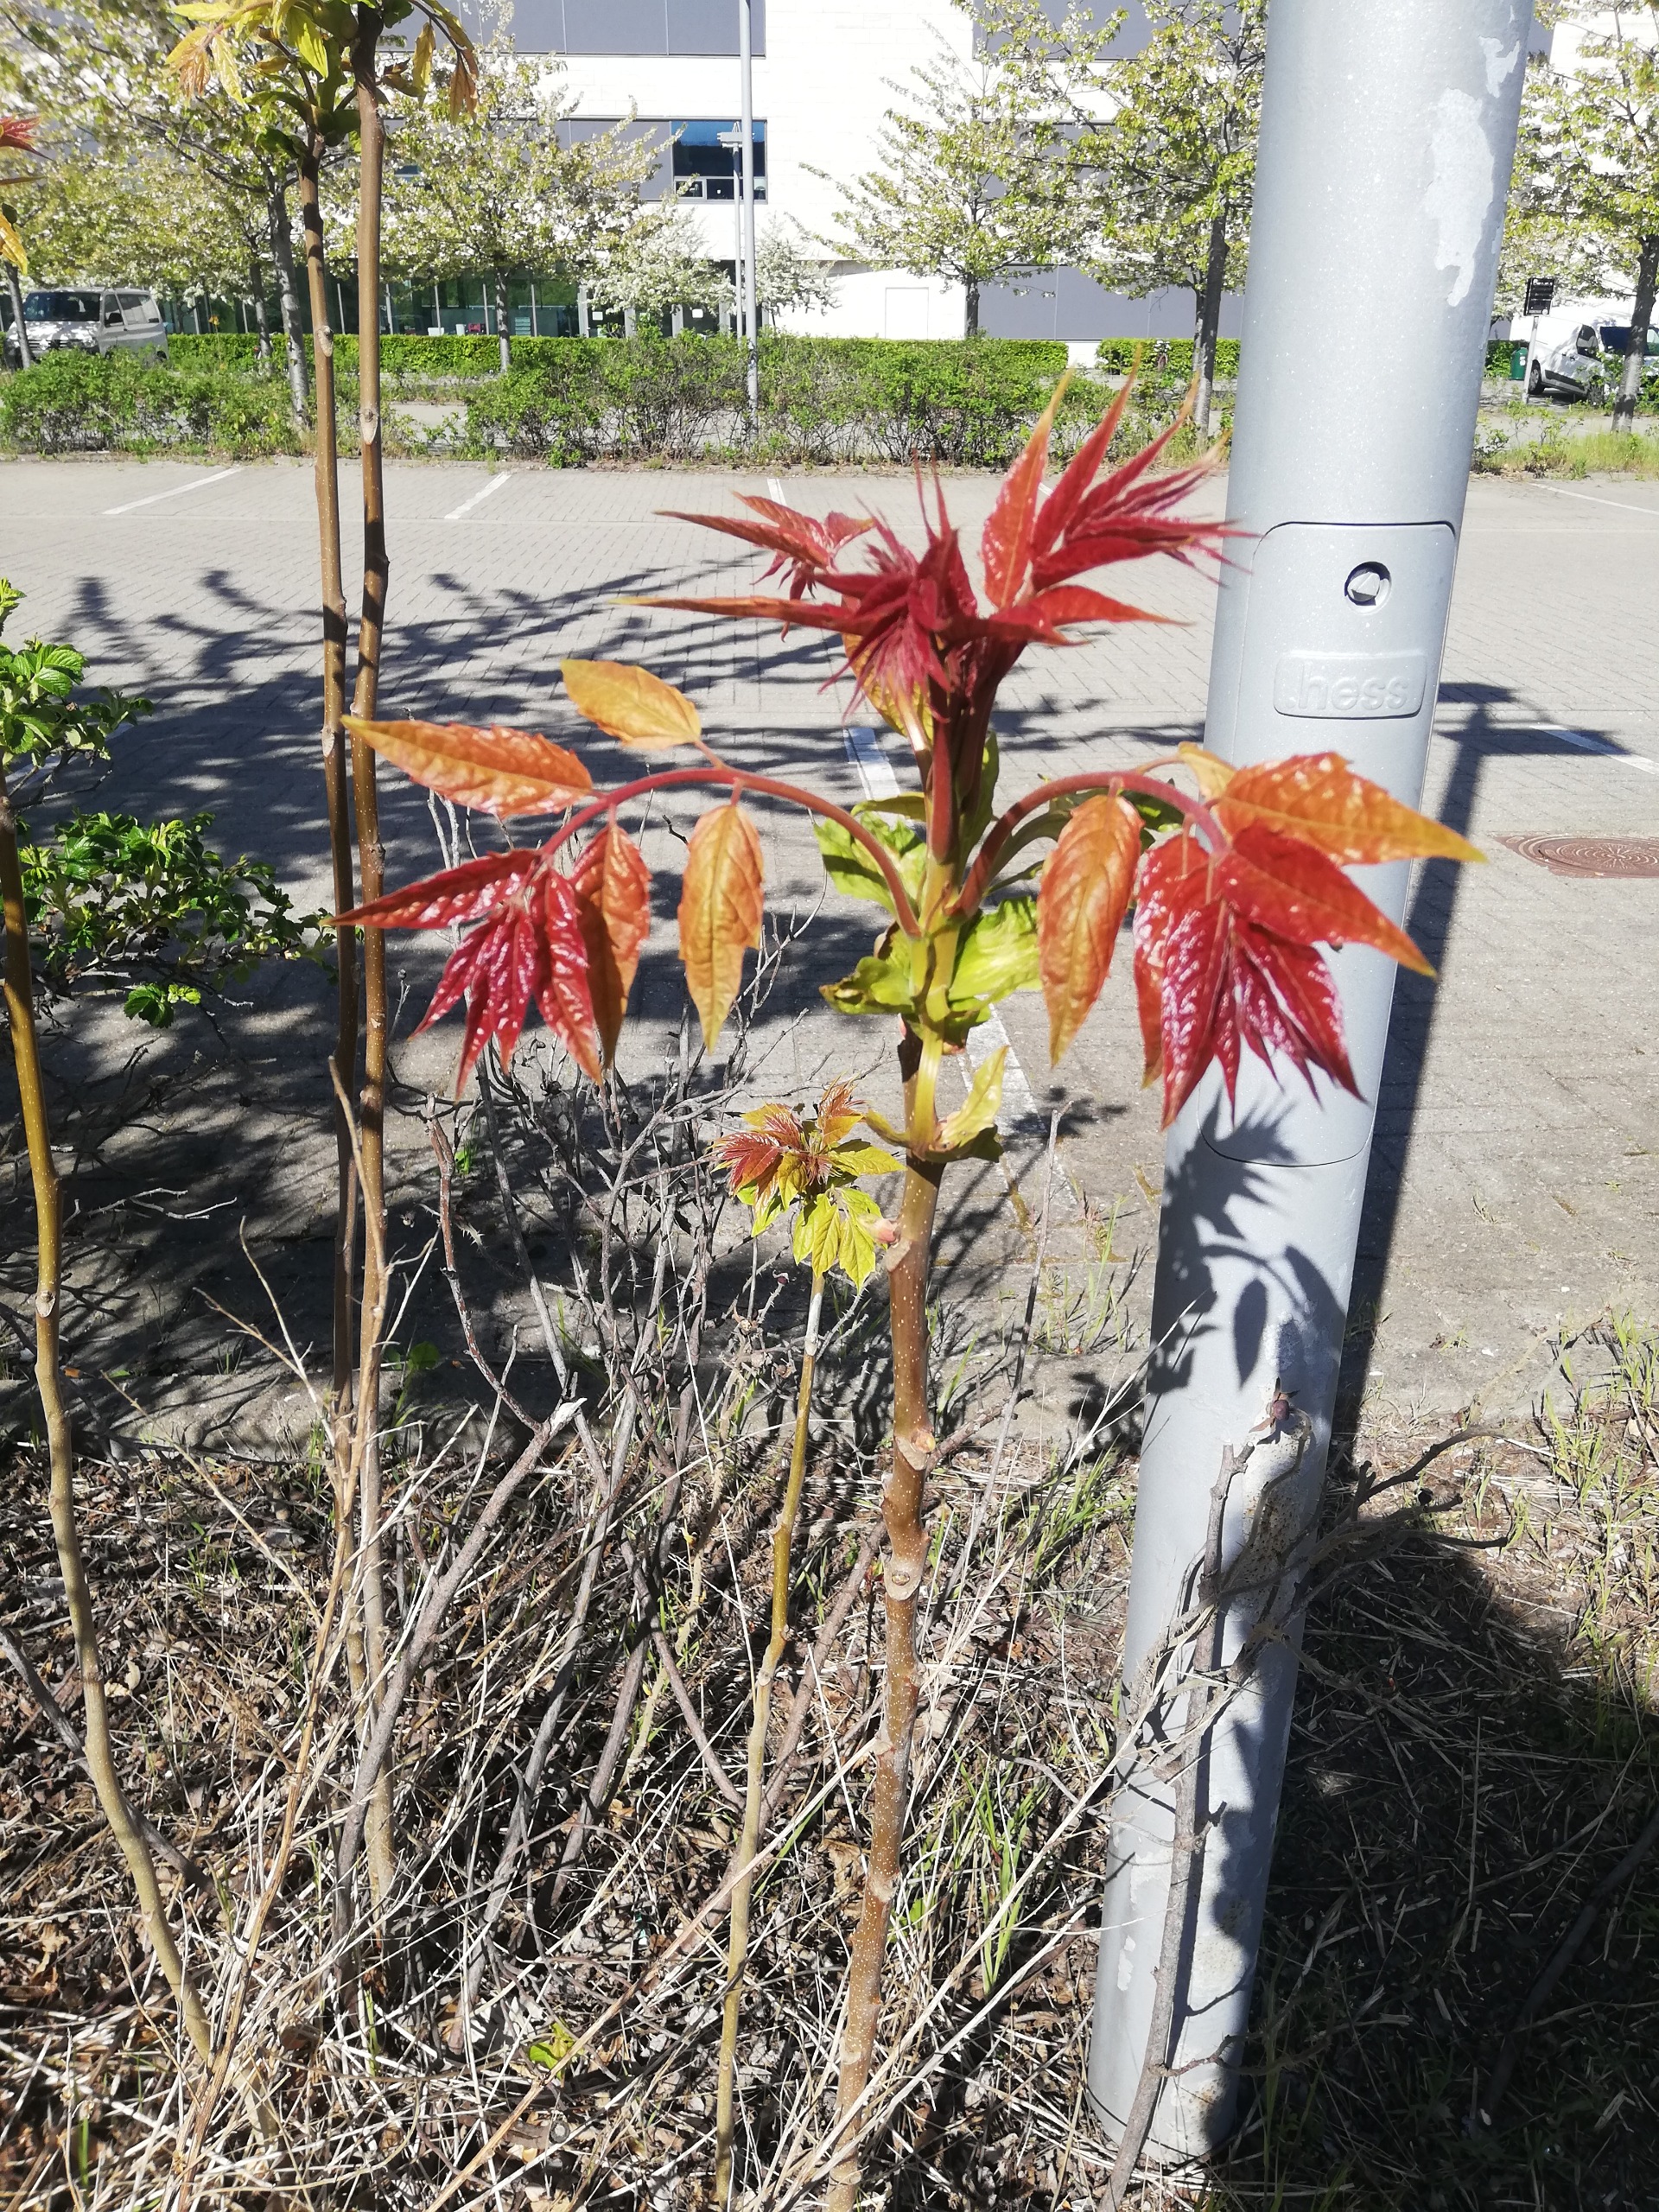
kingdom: Plantae
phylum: Tracheophyta
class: Magnoliopsida
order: Sapindales
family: Simaroubaceae
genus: Ailanthus
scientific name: Ailanthus altissima
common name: Skyrækker
